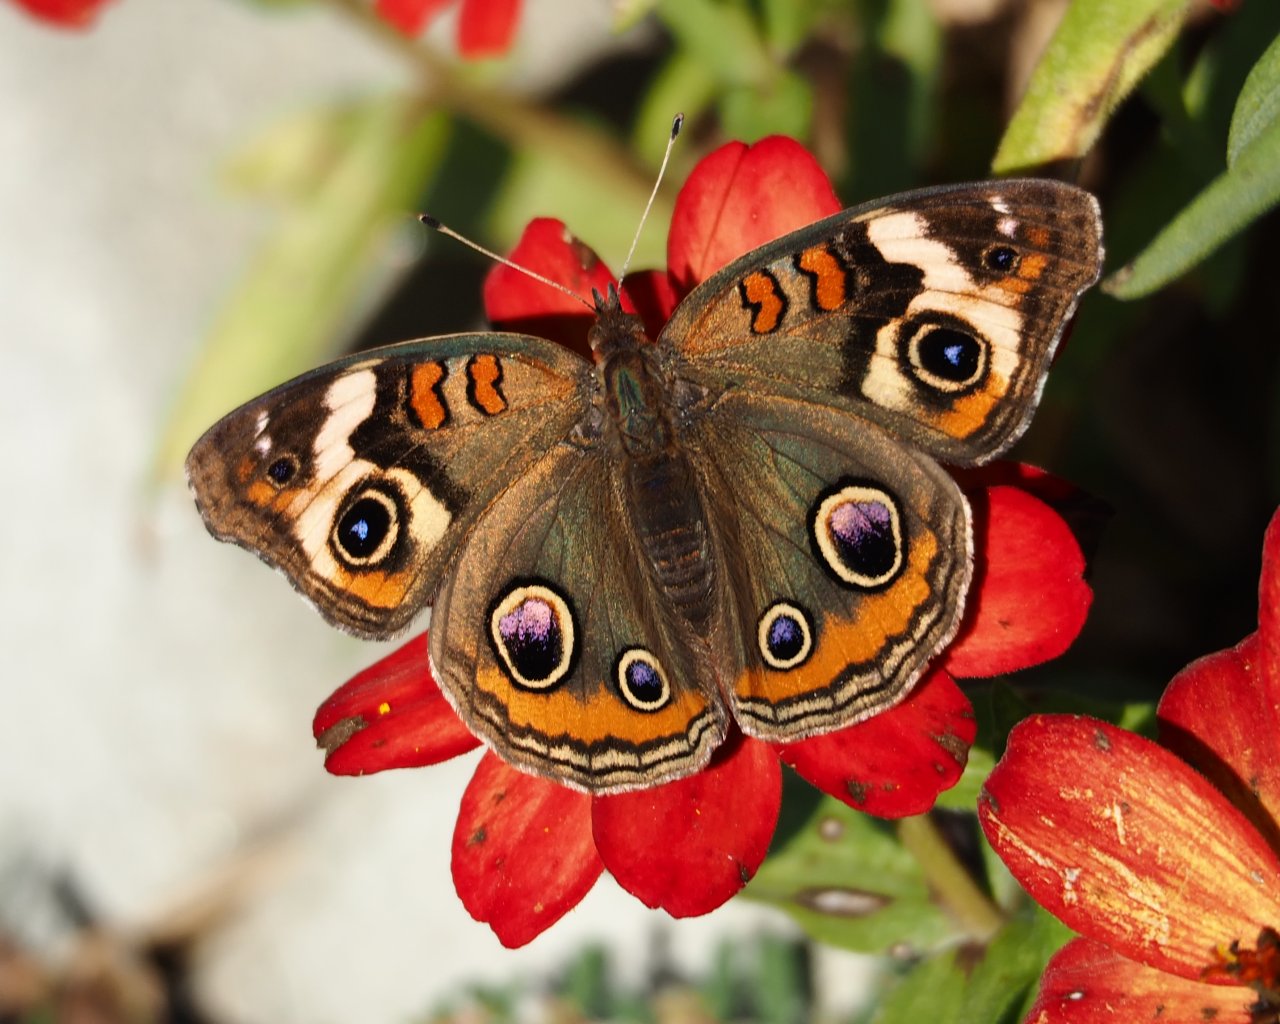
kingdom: Animalia
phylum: Arthropoda
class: Insecta
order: Lepidoptera
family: Nymphalidae
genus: Junonia
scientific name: Junonia coenia
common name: Common Buckeye
